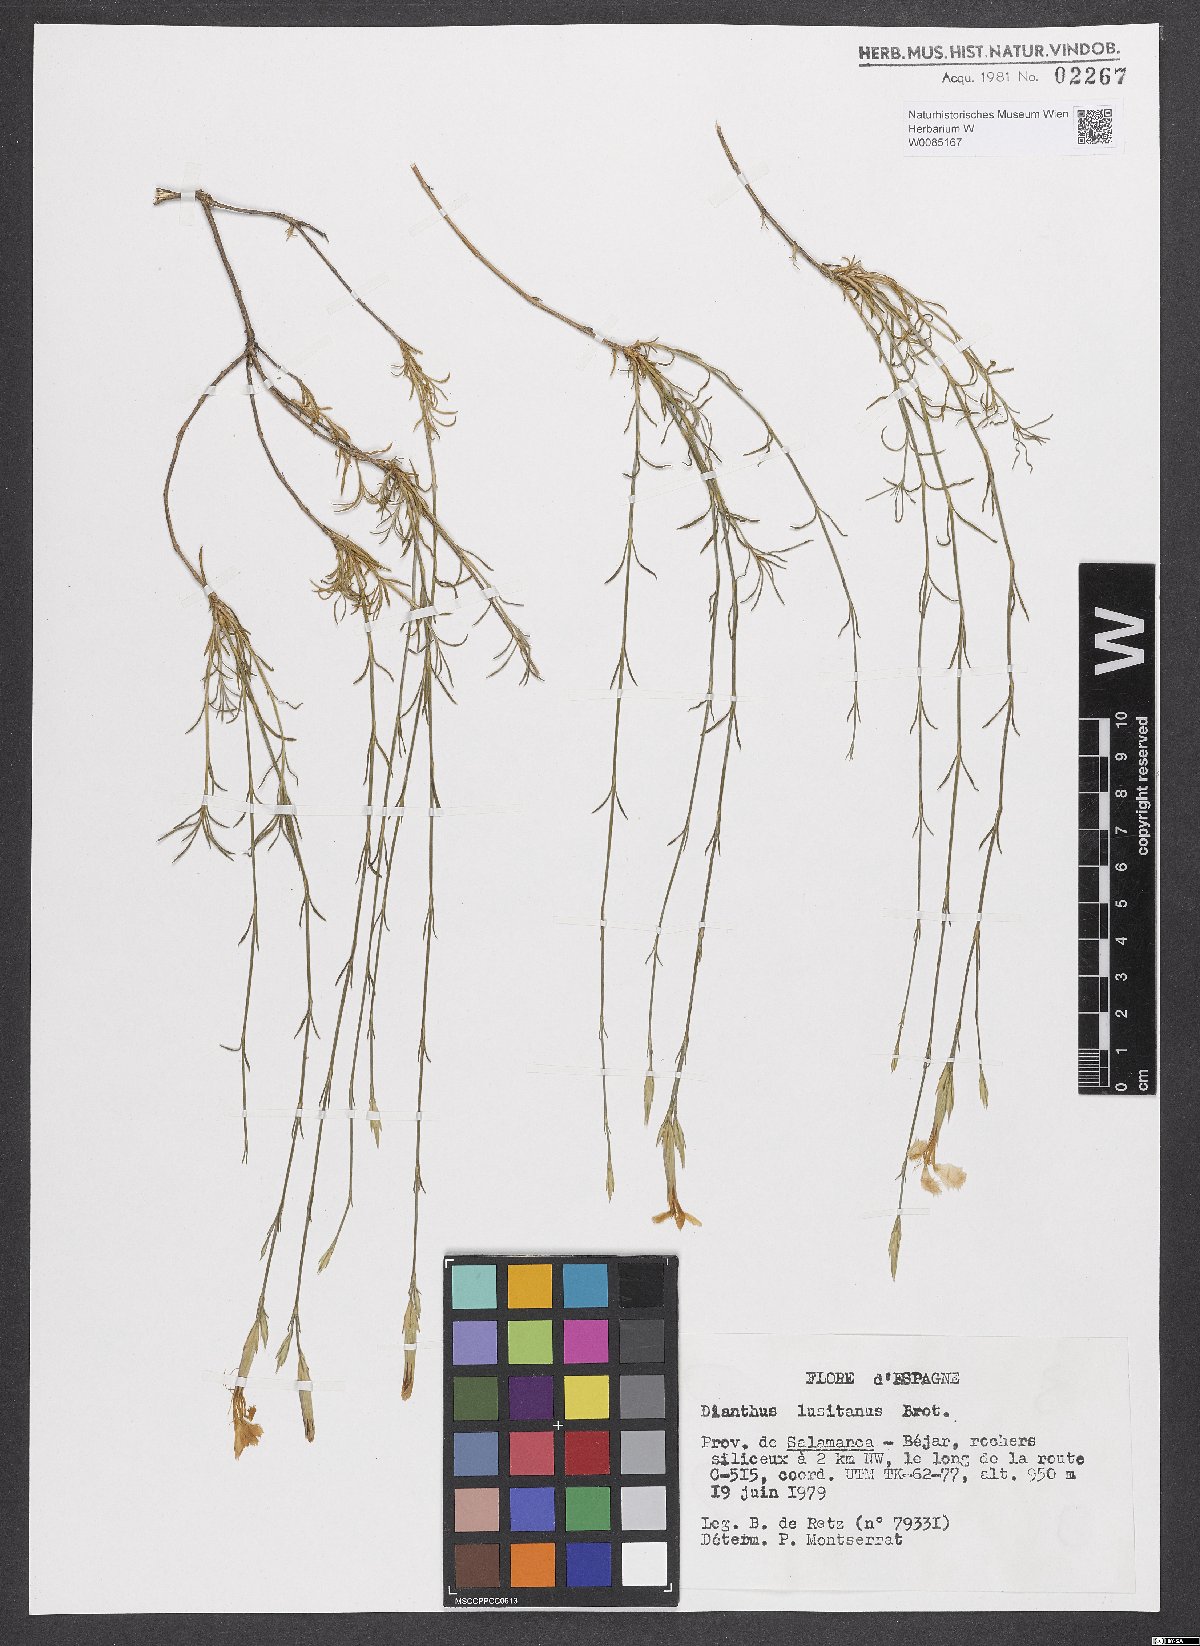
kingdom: Plantae
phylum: Tracheophyta
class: Magnoliopsida
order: Caryophyllales
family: Caryophyllaceae
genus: Dianthus
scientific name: Dianthus lusitanus
